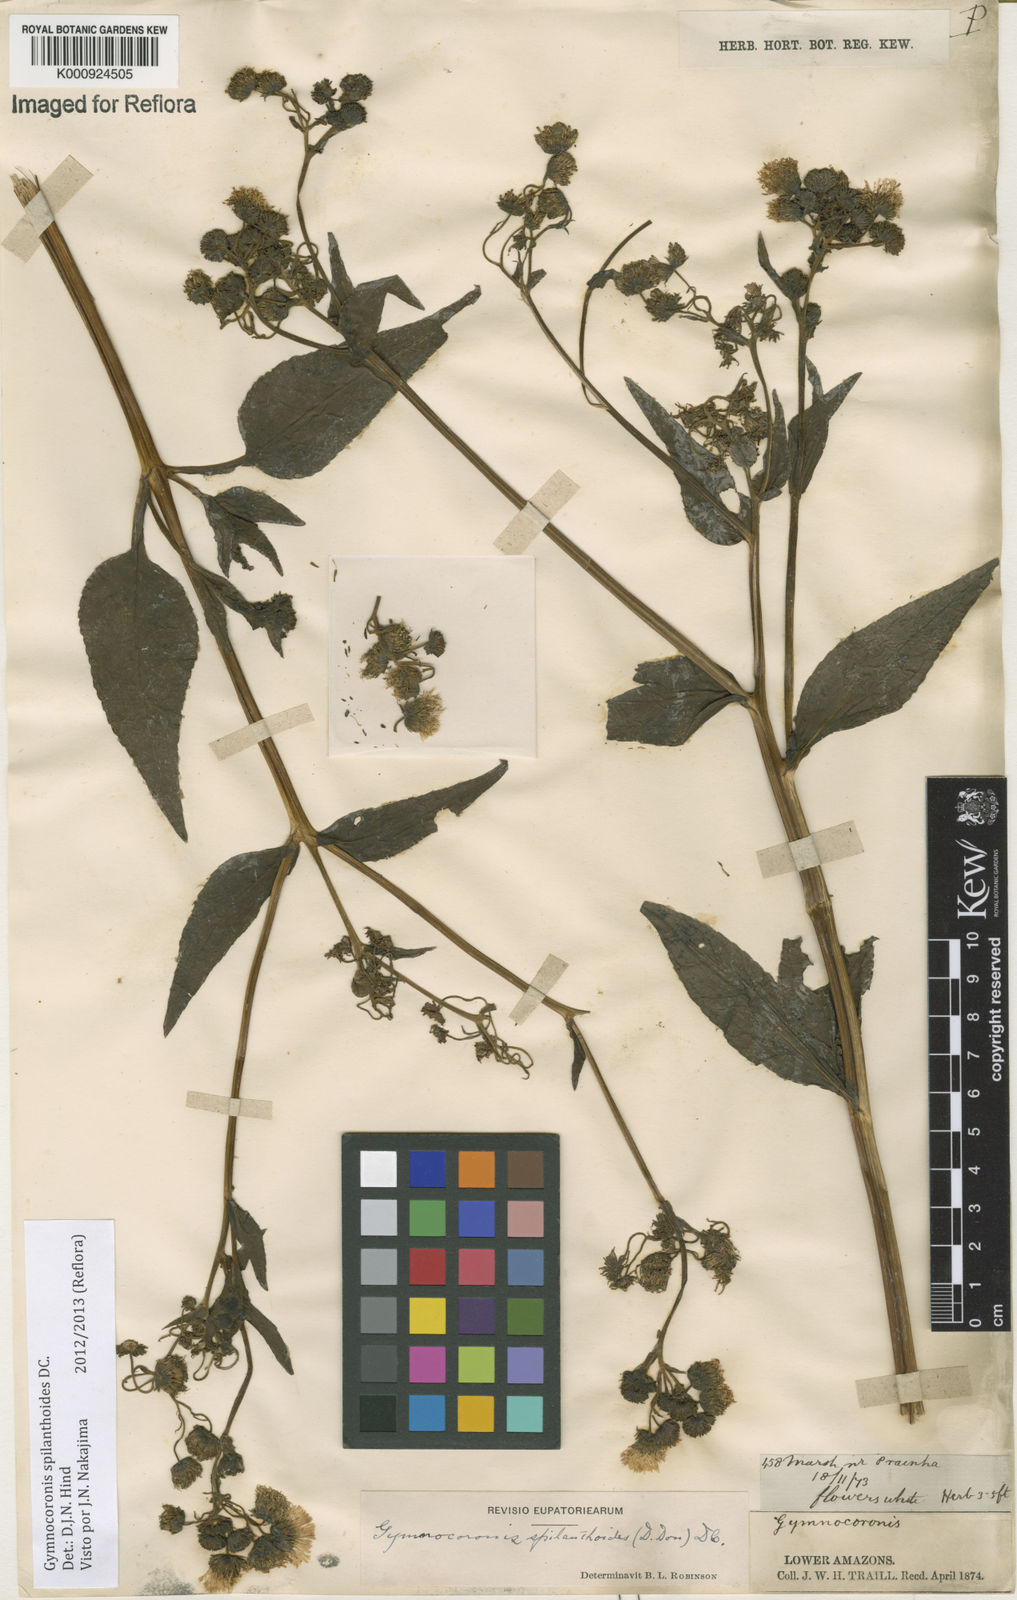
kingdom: Plantae
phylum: Tracheophyta
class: Magnoliopsida
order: Asterales
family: Asteraceae
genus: Gymnocoronis
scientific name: Gymnocoronis spilanthoides
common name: Senegal teaplant
